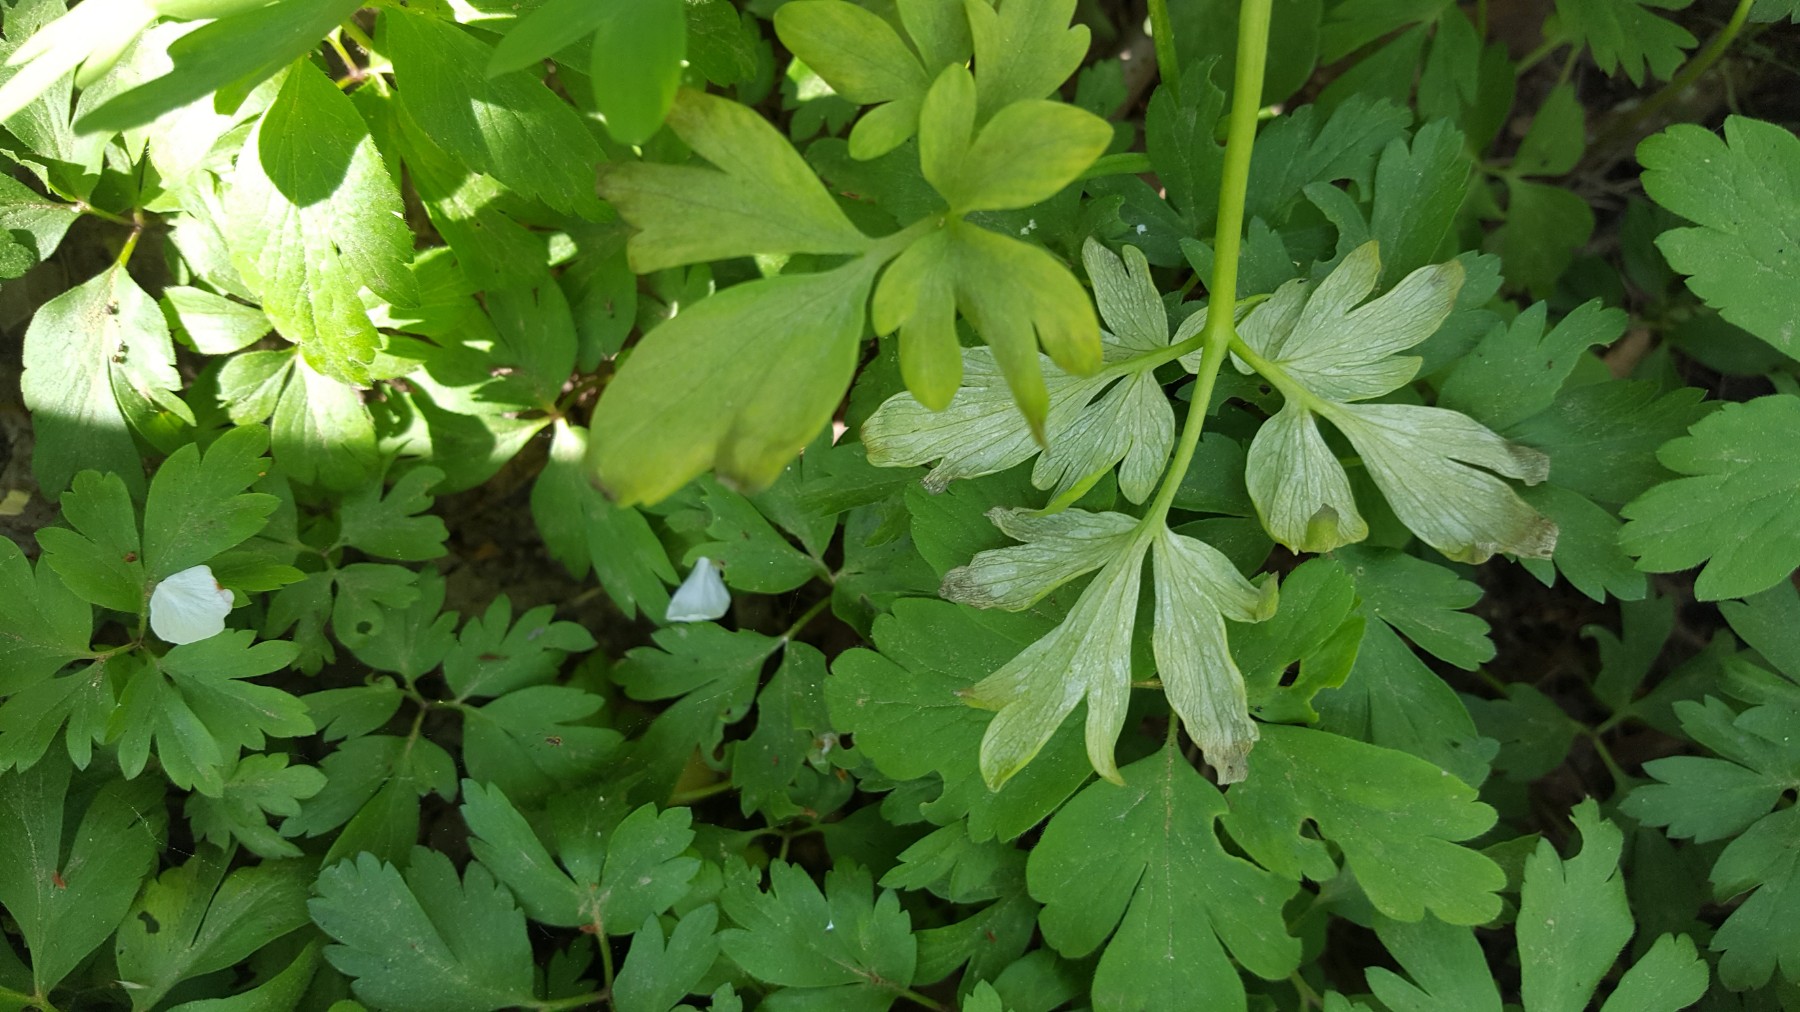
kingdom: Chromista
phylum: Oomycota
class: Peronosporea
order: Peronosporales
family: Peronosporaceae
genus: Peronospora
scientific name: Peronospora bulbocapni
